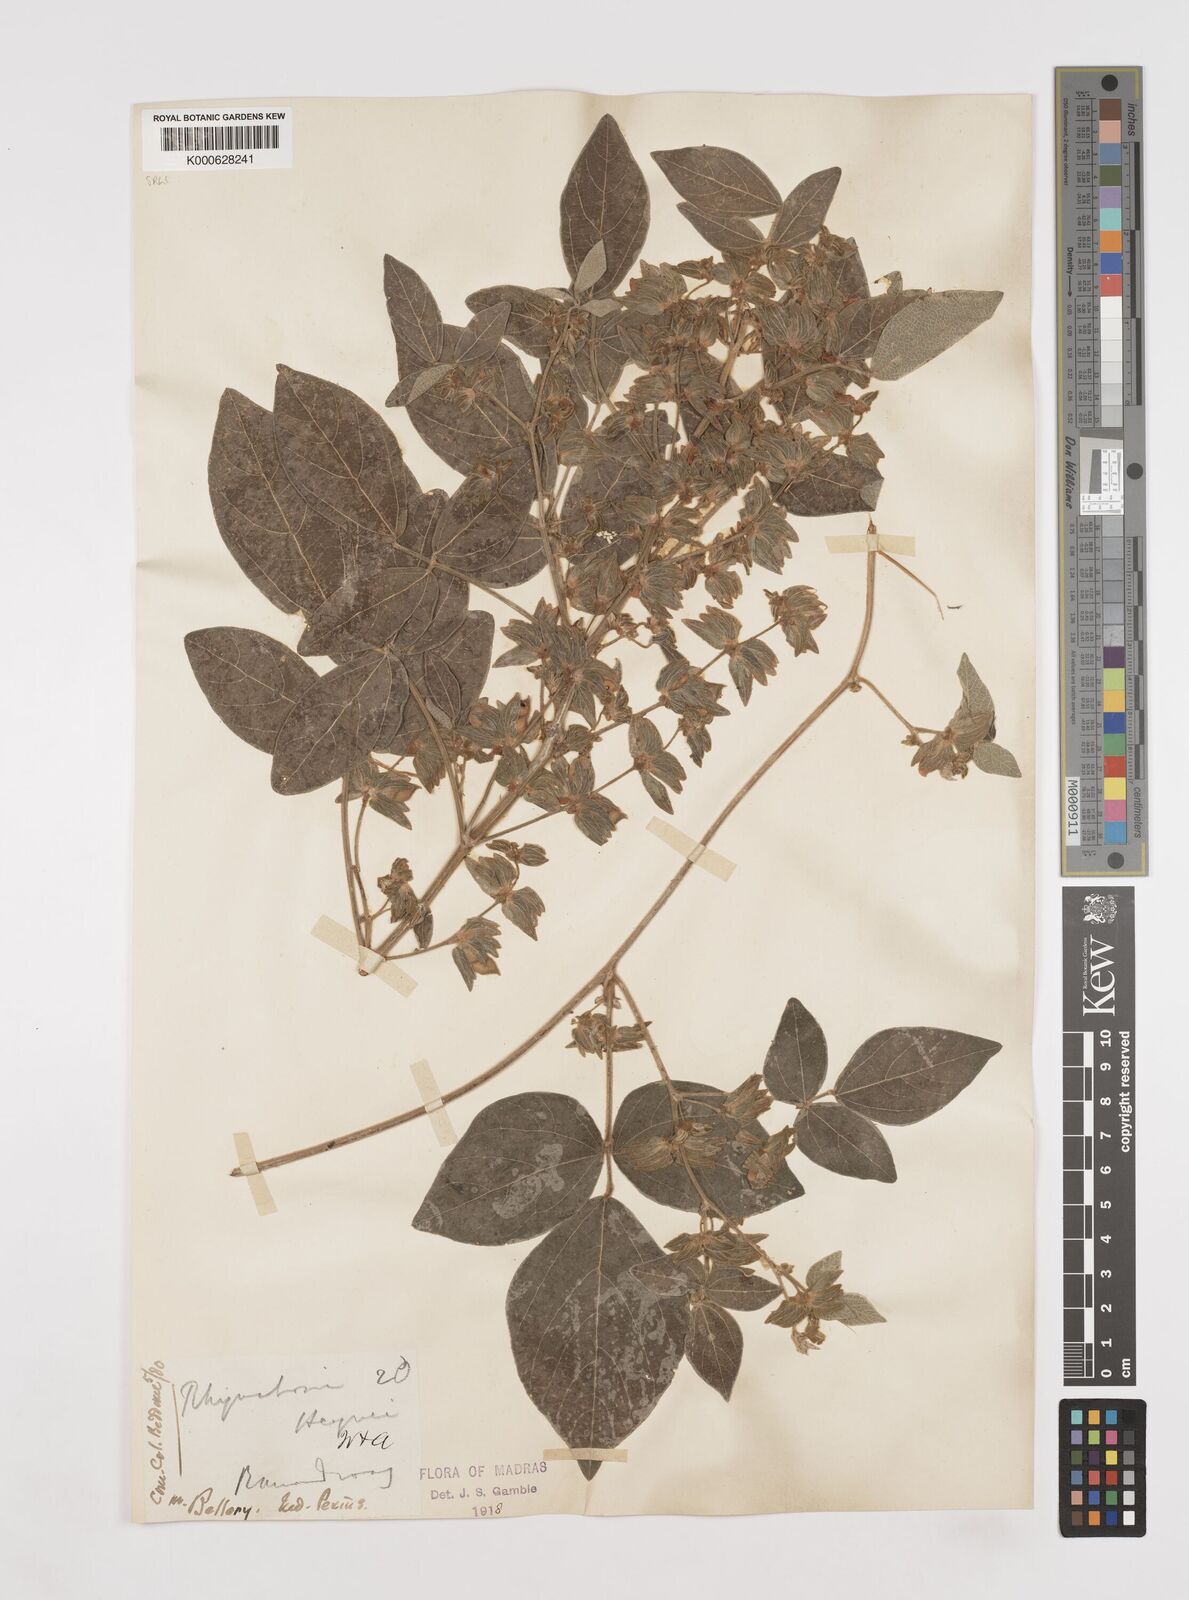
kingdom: Plantae
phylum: Tracheophyta
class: Magnoliopsida
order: Fabales
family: Fabaceae
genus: Rhynchosia
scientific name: Rhynchosia heynei
